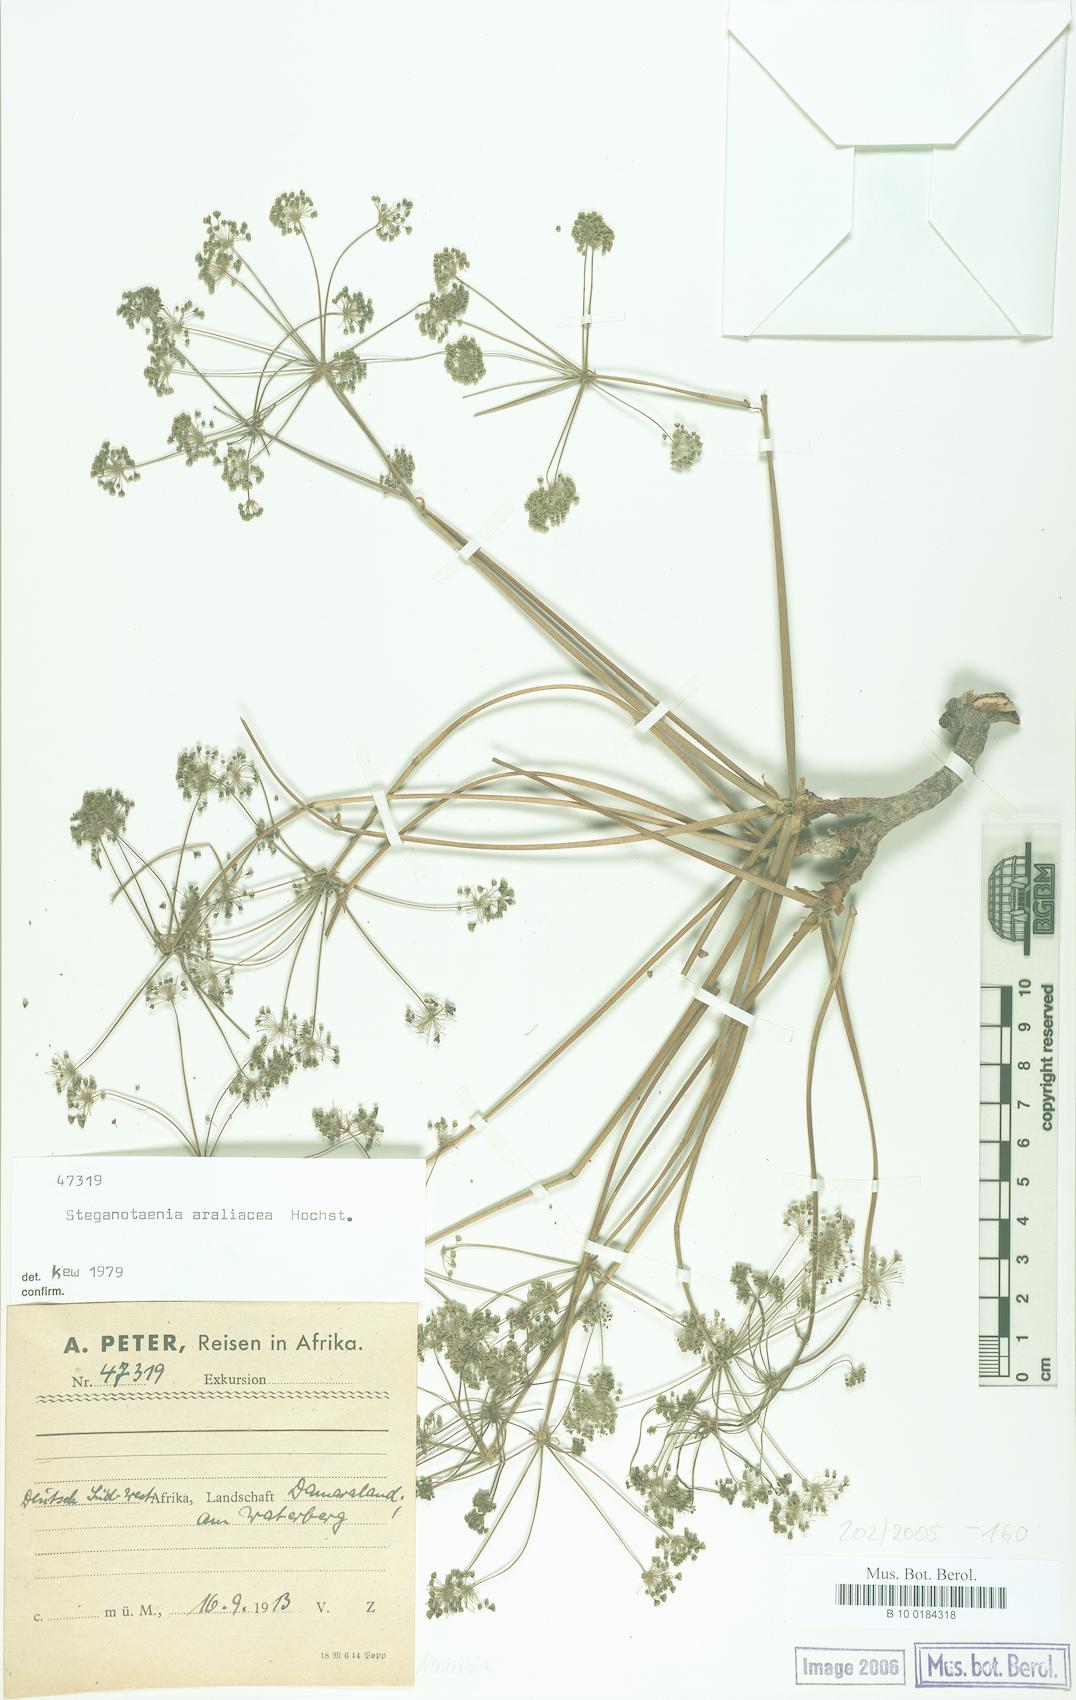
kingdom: Plantae
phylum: Tracheophyta
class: Magnoliopsida
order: Apiales
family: Apiaceae
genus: Steganotaenia
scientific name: Steganotaenia araliacea
